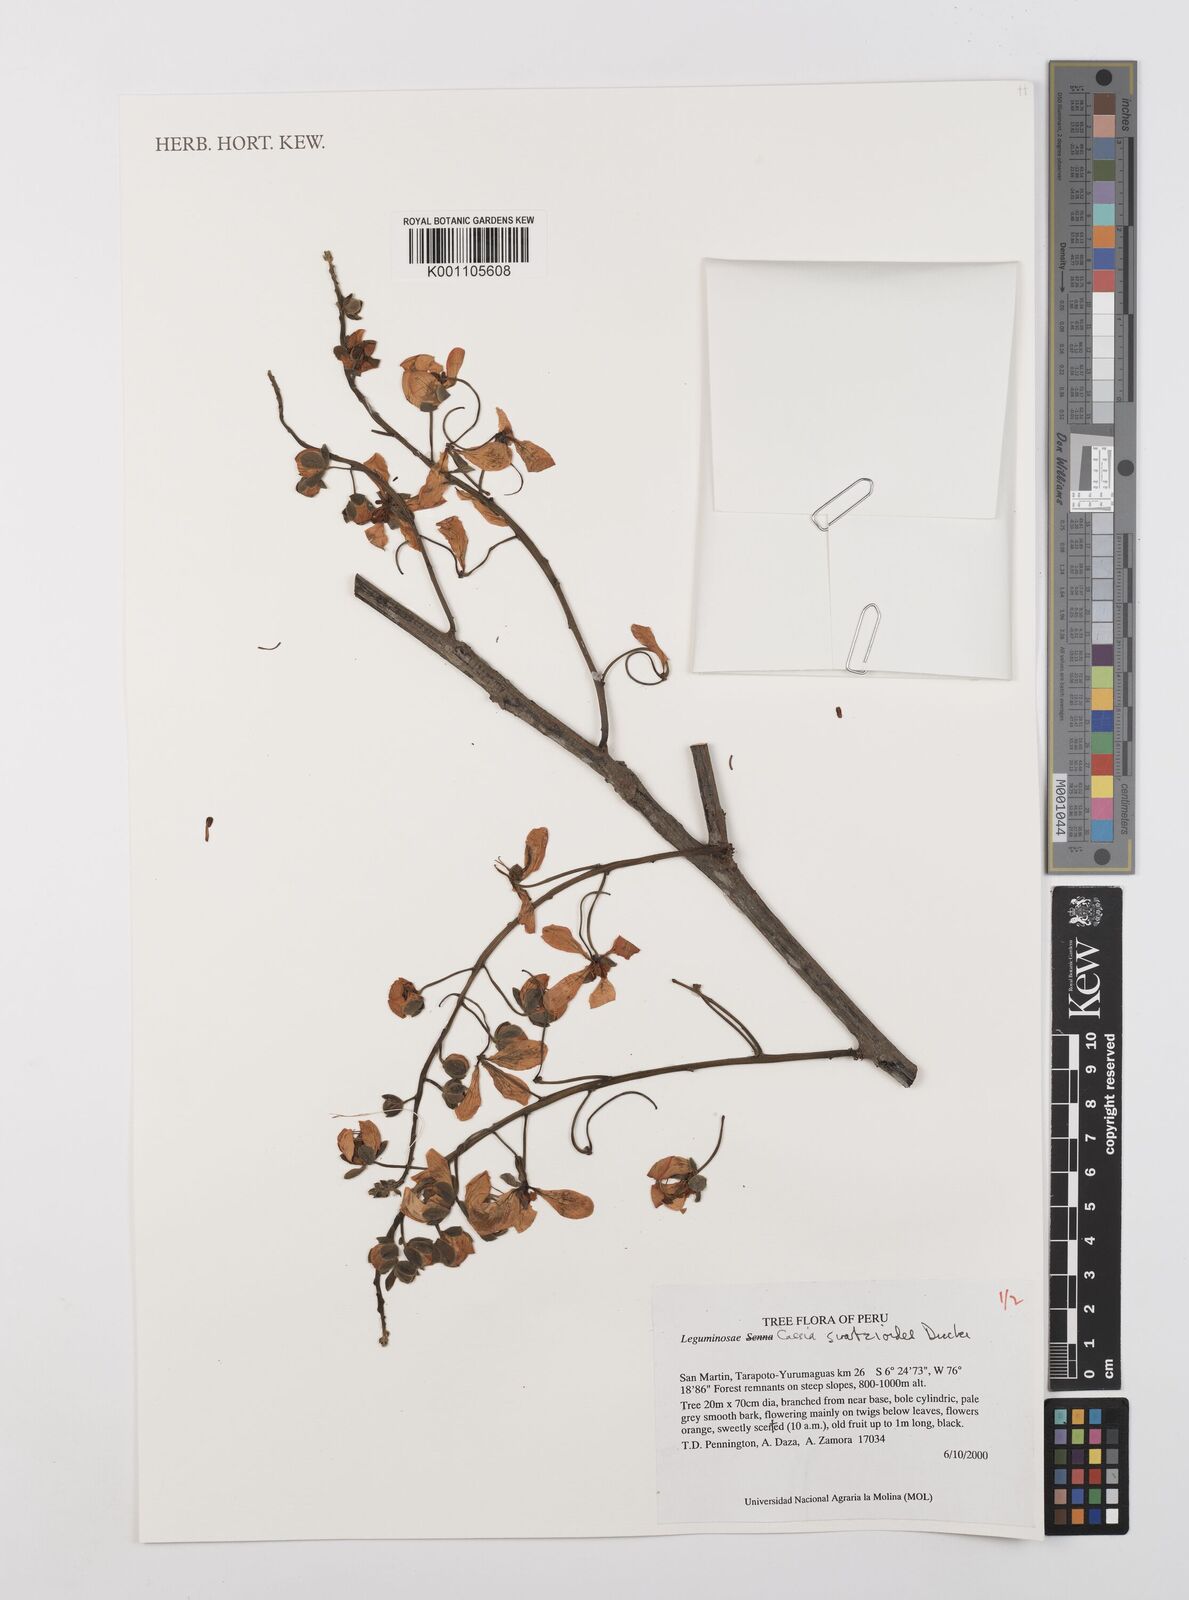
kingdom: Plantae
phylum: Tracheophyta
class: Magnoliopsida
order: Fabales
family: Fabaceae
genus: Cassia
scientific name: Cassia swartzioides
